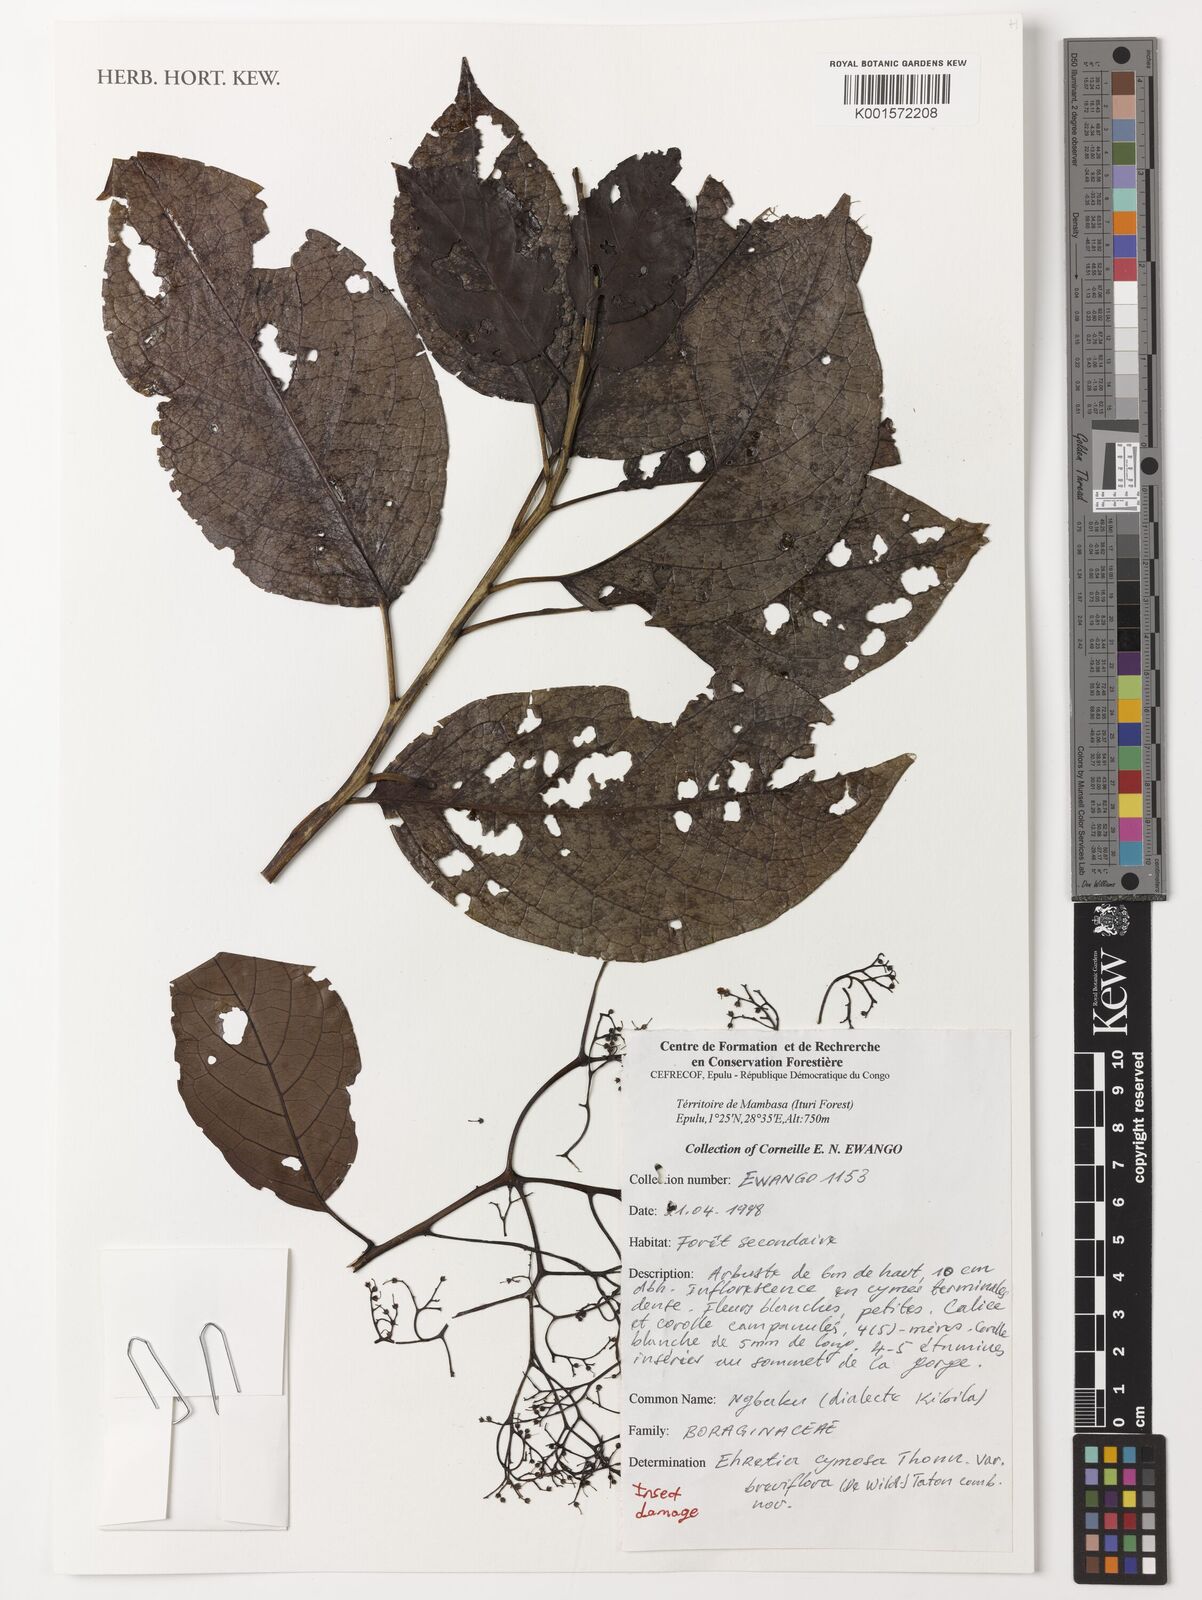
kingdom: Plantae
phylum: Tracheophyta
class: Magnoliopsida
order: Boraginales
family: Ehretiaceae
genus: Ehretia
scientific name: Ehretia cymosa
